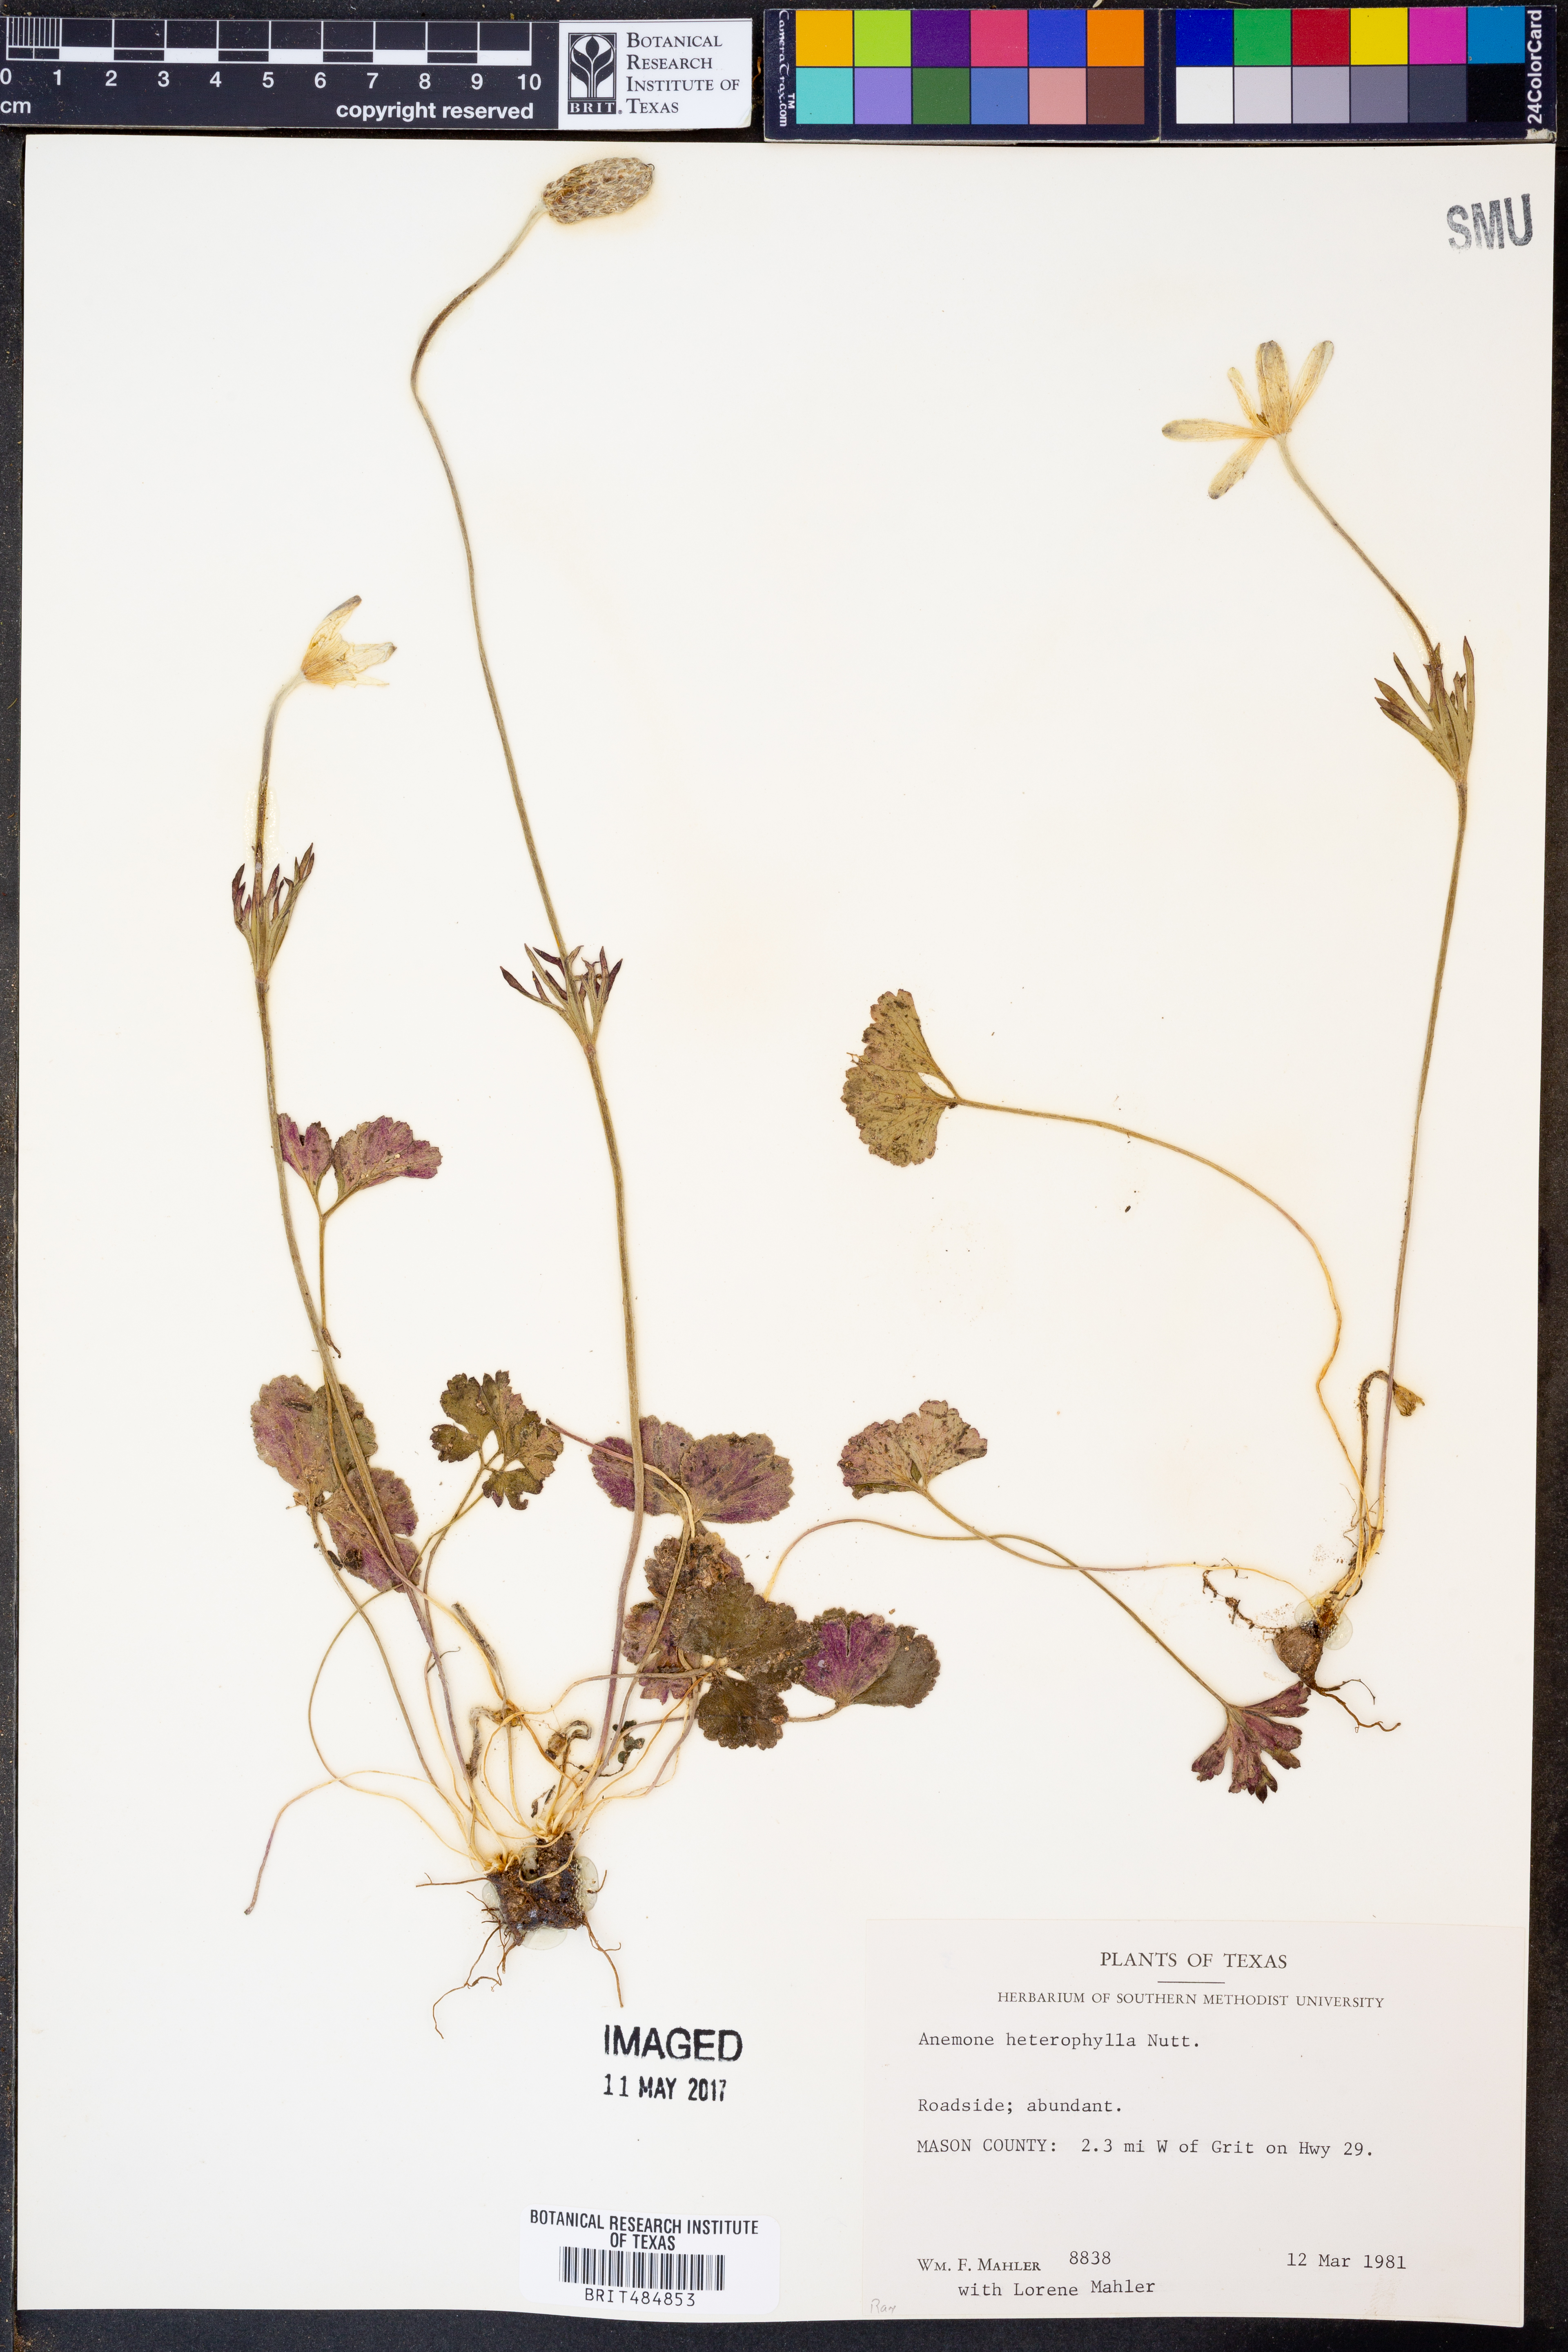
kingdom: Plantae
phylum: Tracheophyta
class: Magnoliopsida
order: Ranunculales
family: Ranunculaceae
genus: Anemone
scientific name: Anemone heterophylla
